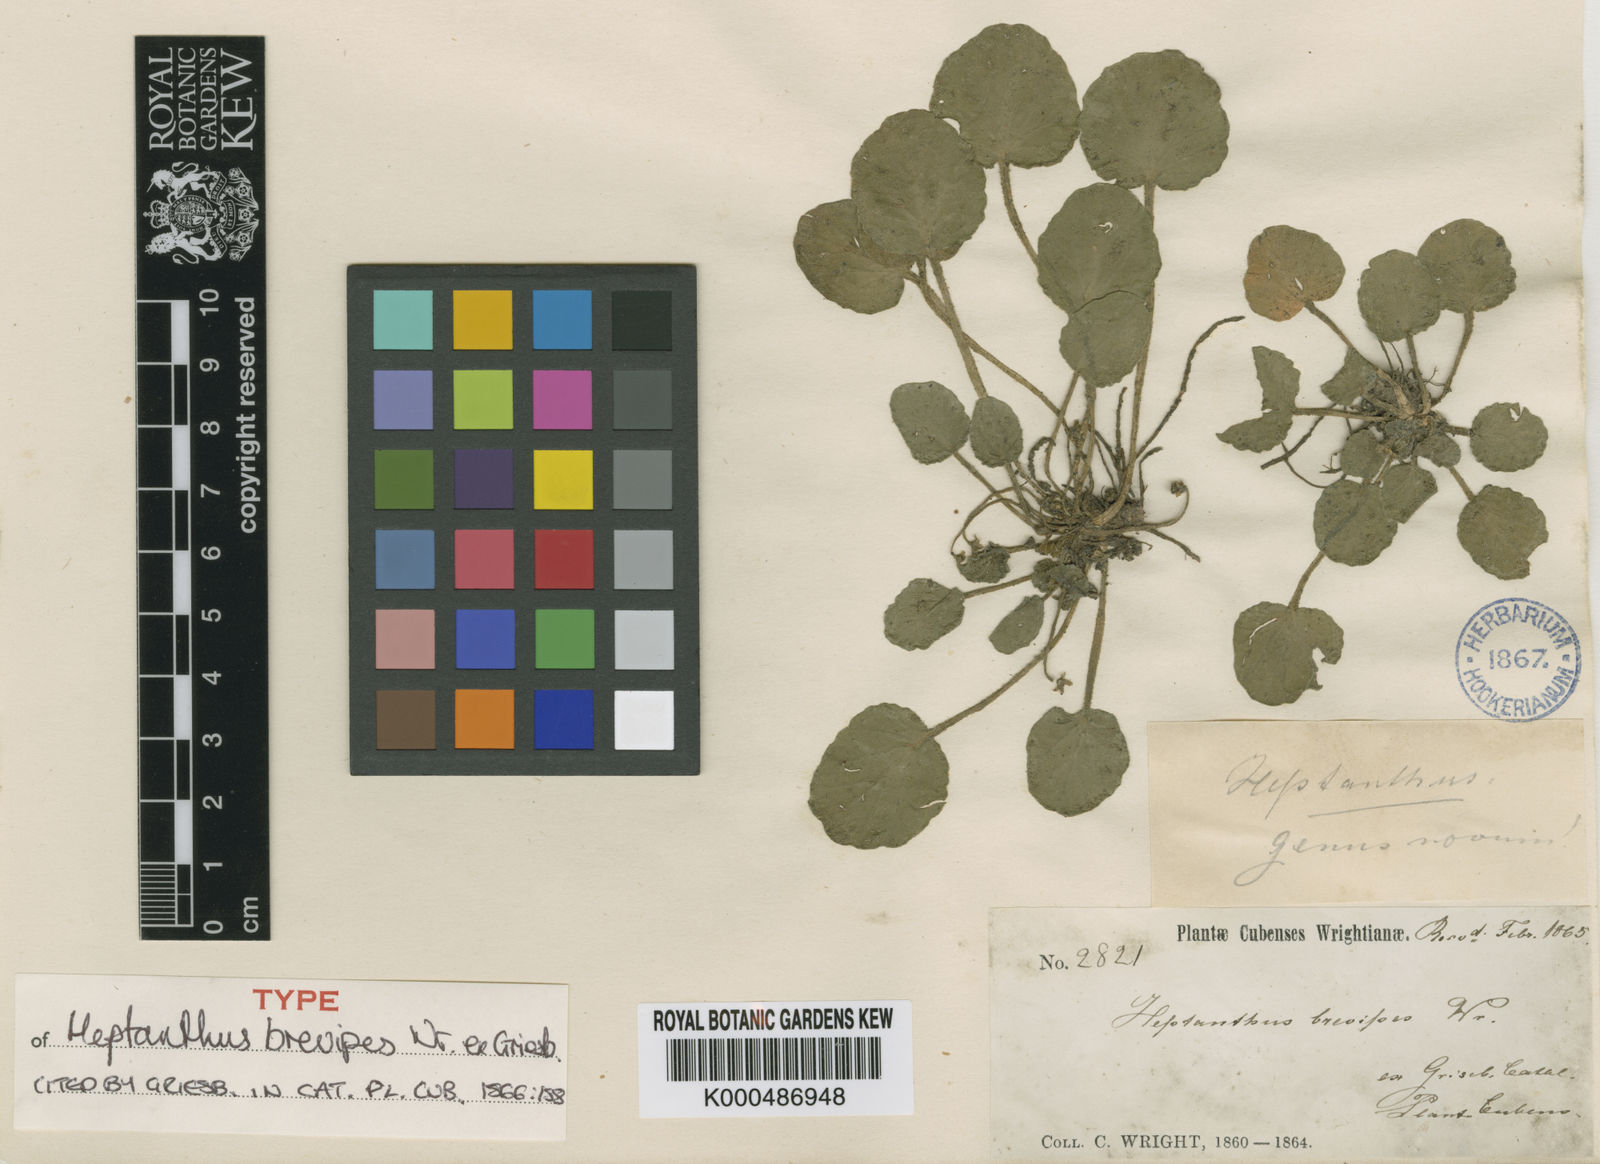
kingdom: Plantae
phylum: Tracheophyta
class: Magnoliopsida
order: Asterales
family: Asteraceae
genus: Heptanthus
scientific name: Heptanthus brevipes
